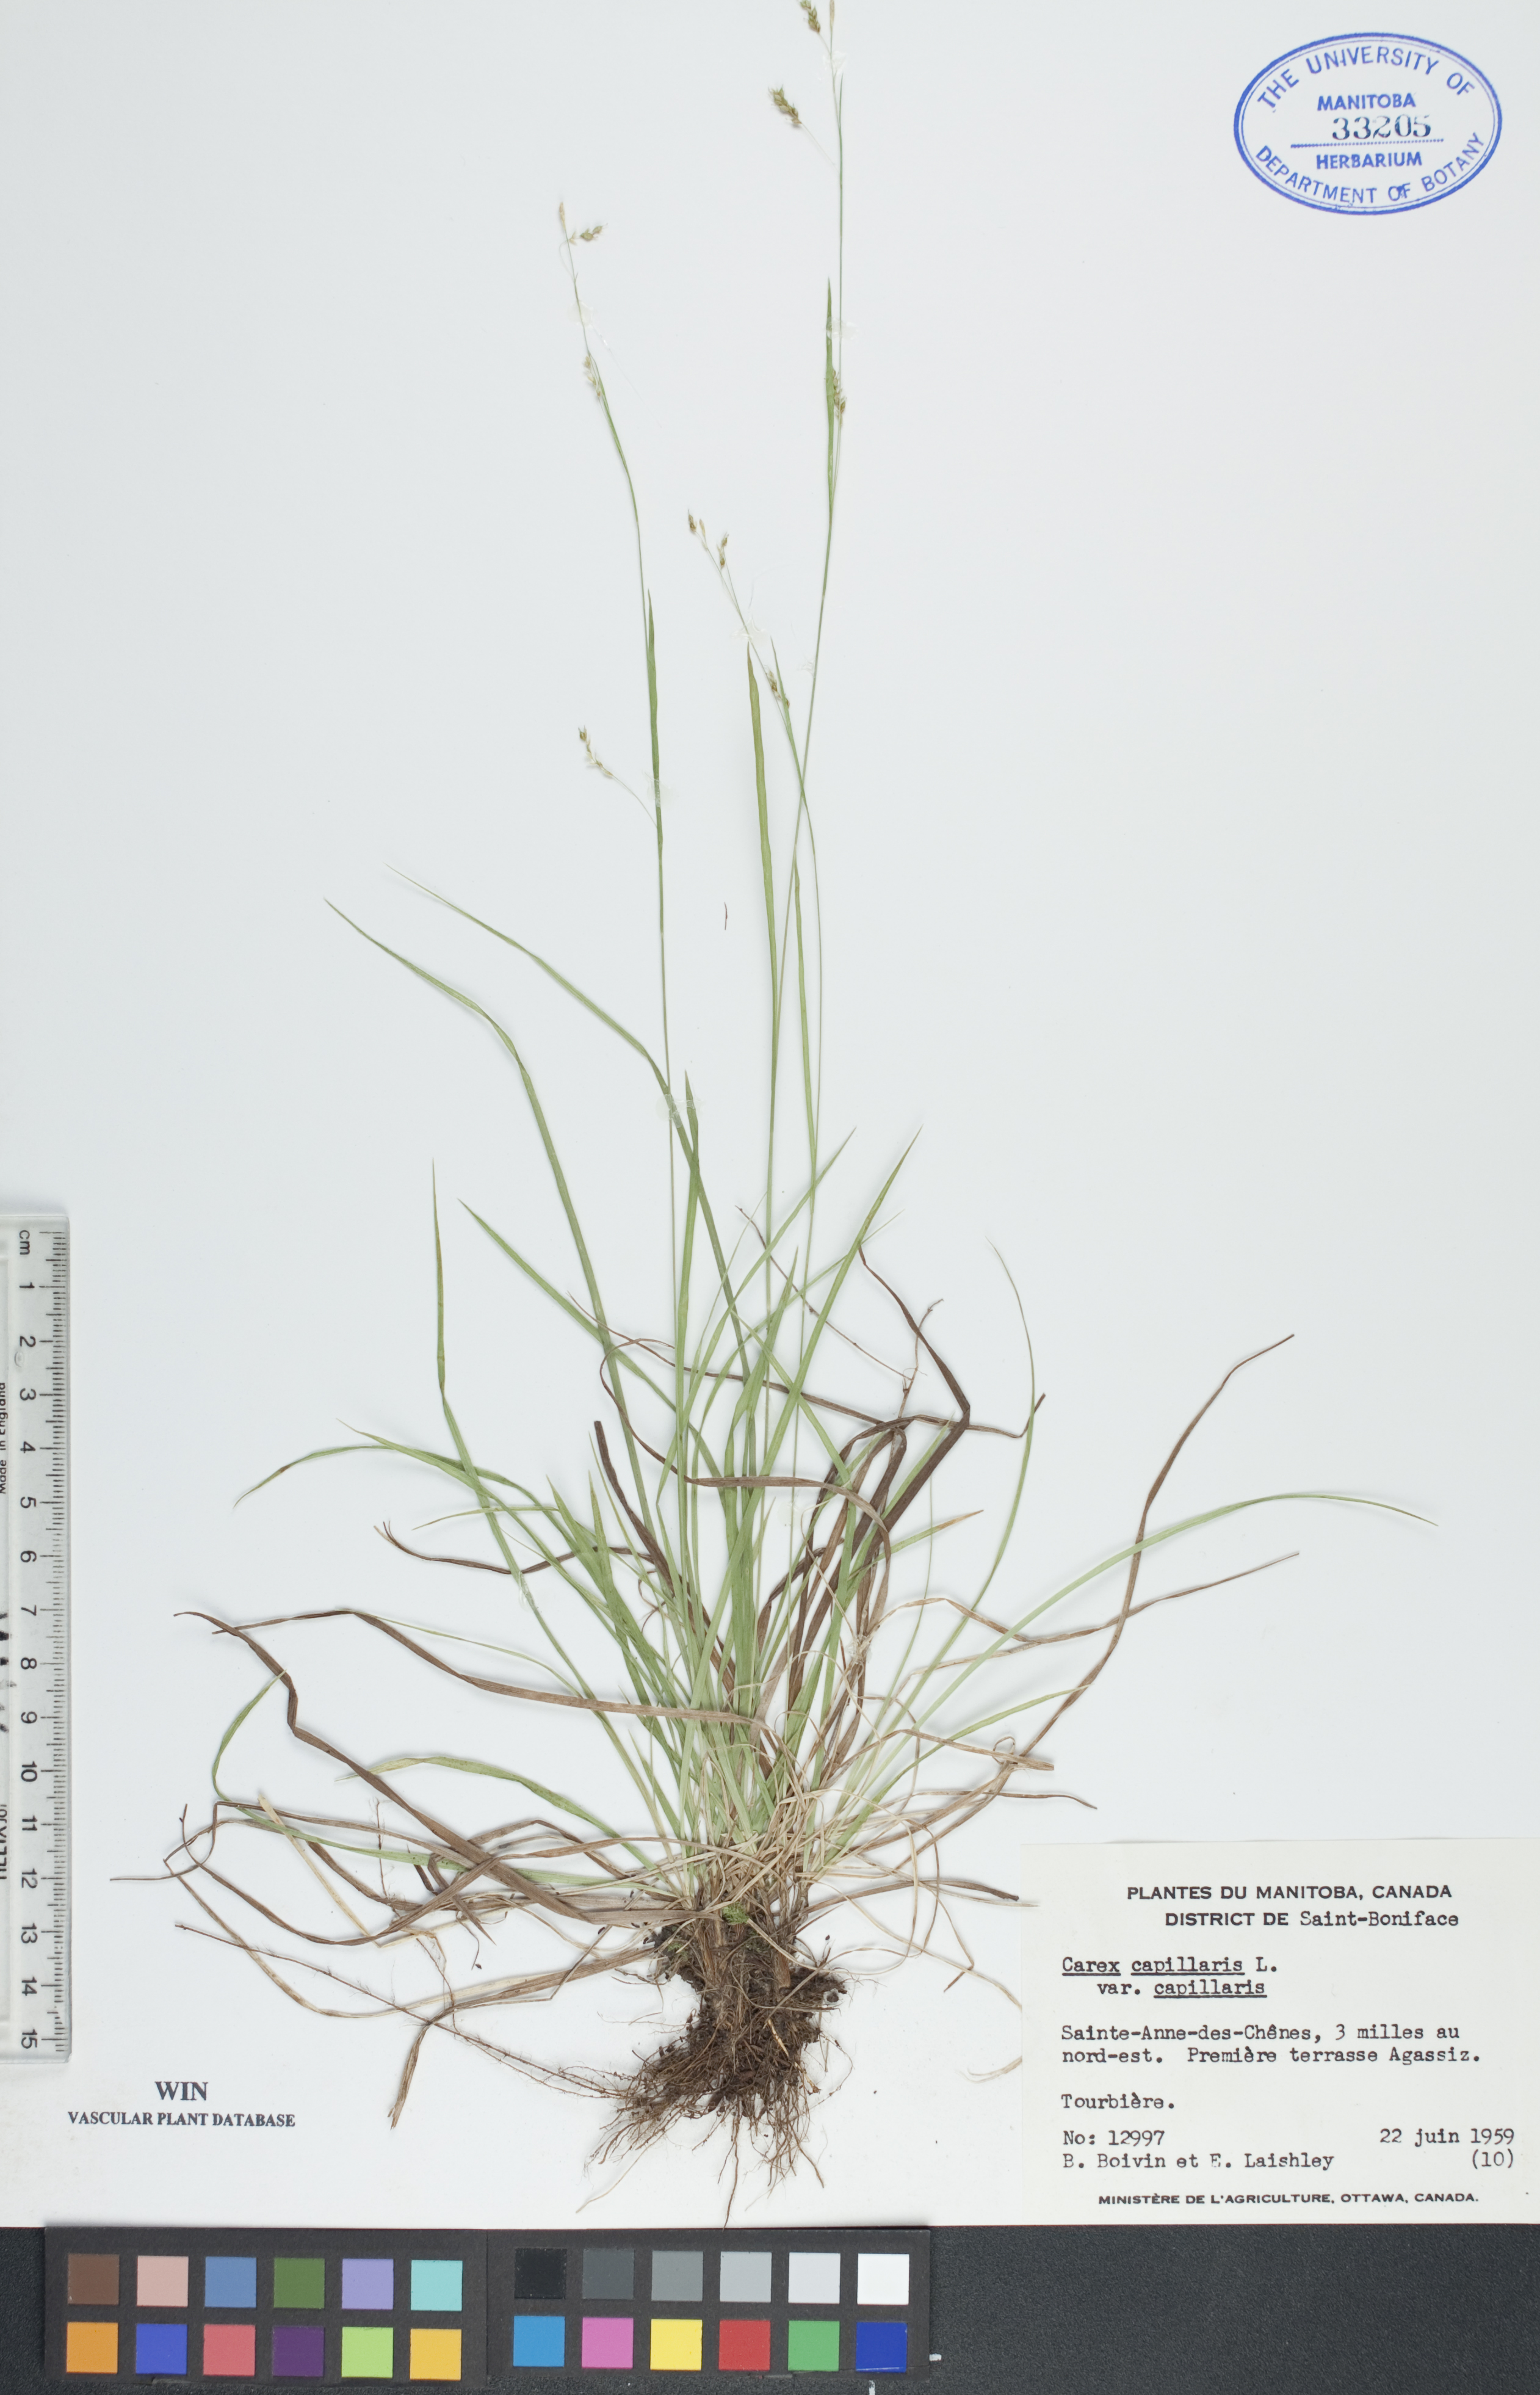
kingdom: Plantae
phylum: Tracheophyta
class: Liliopsida
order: Poales
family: Cyperaceae
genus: Carex
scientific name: Carex capillaris
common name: Hair sedge
